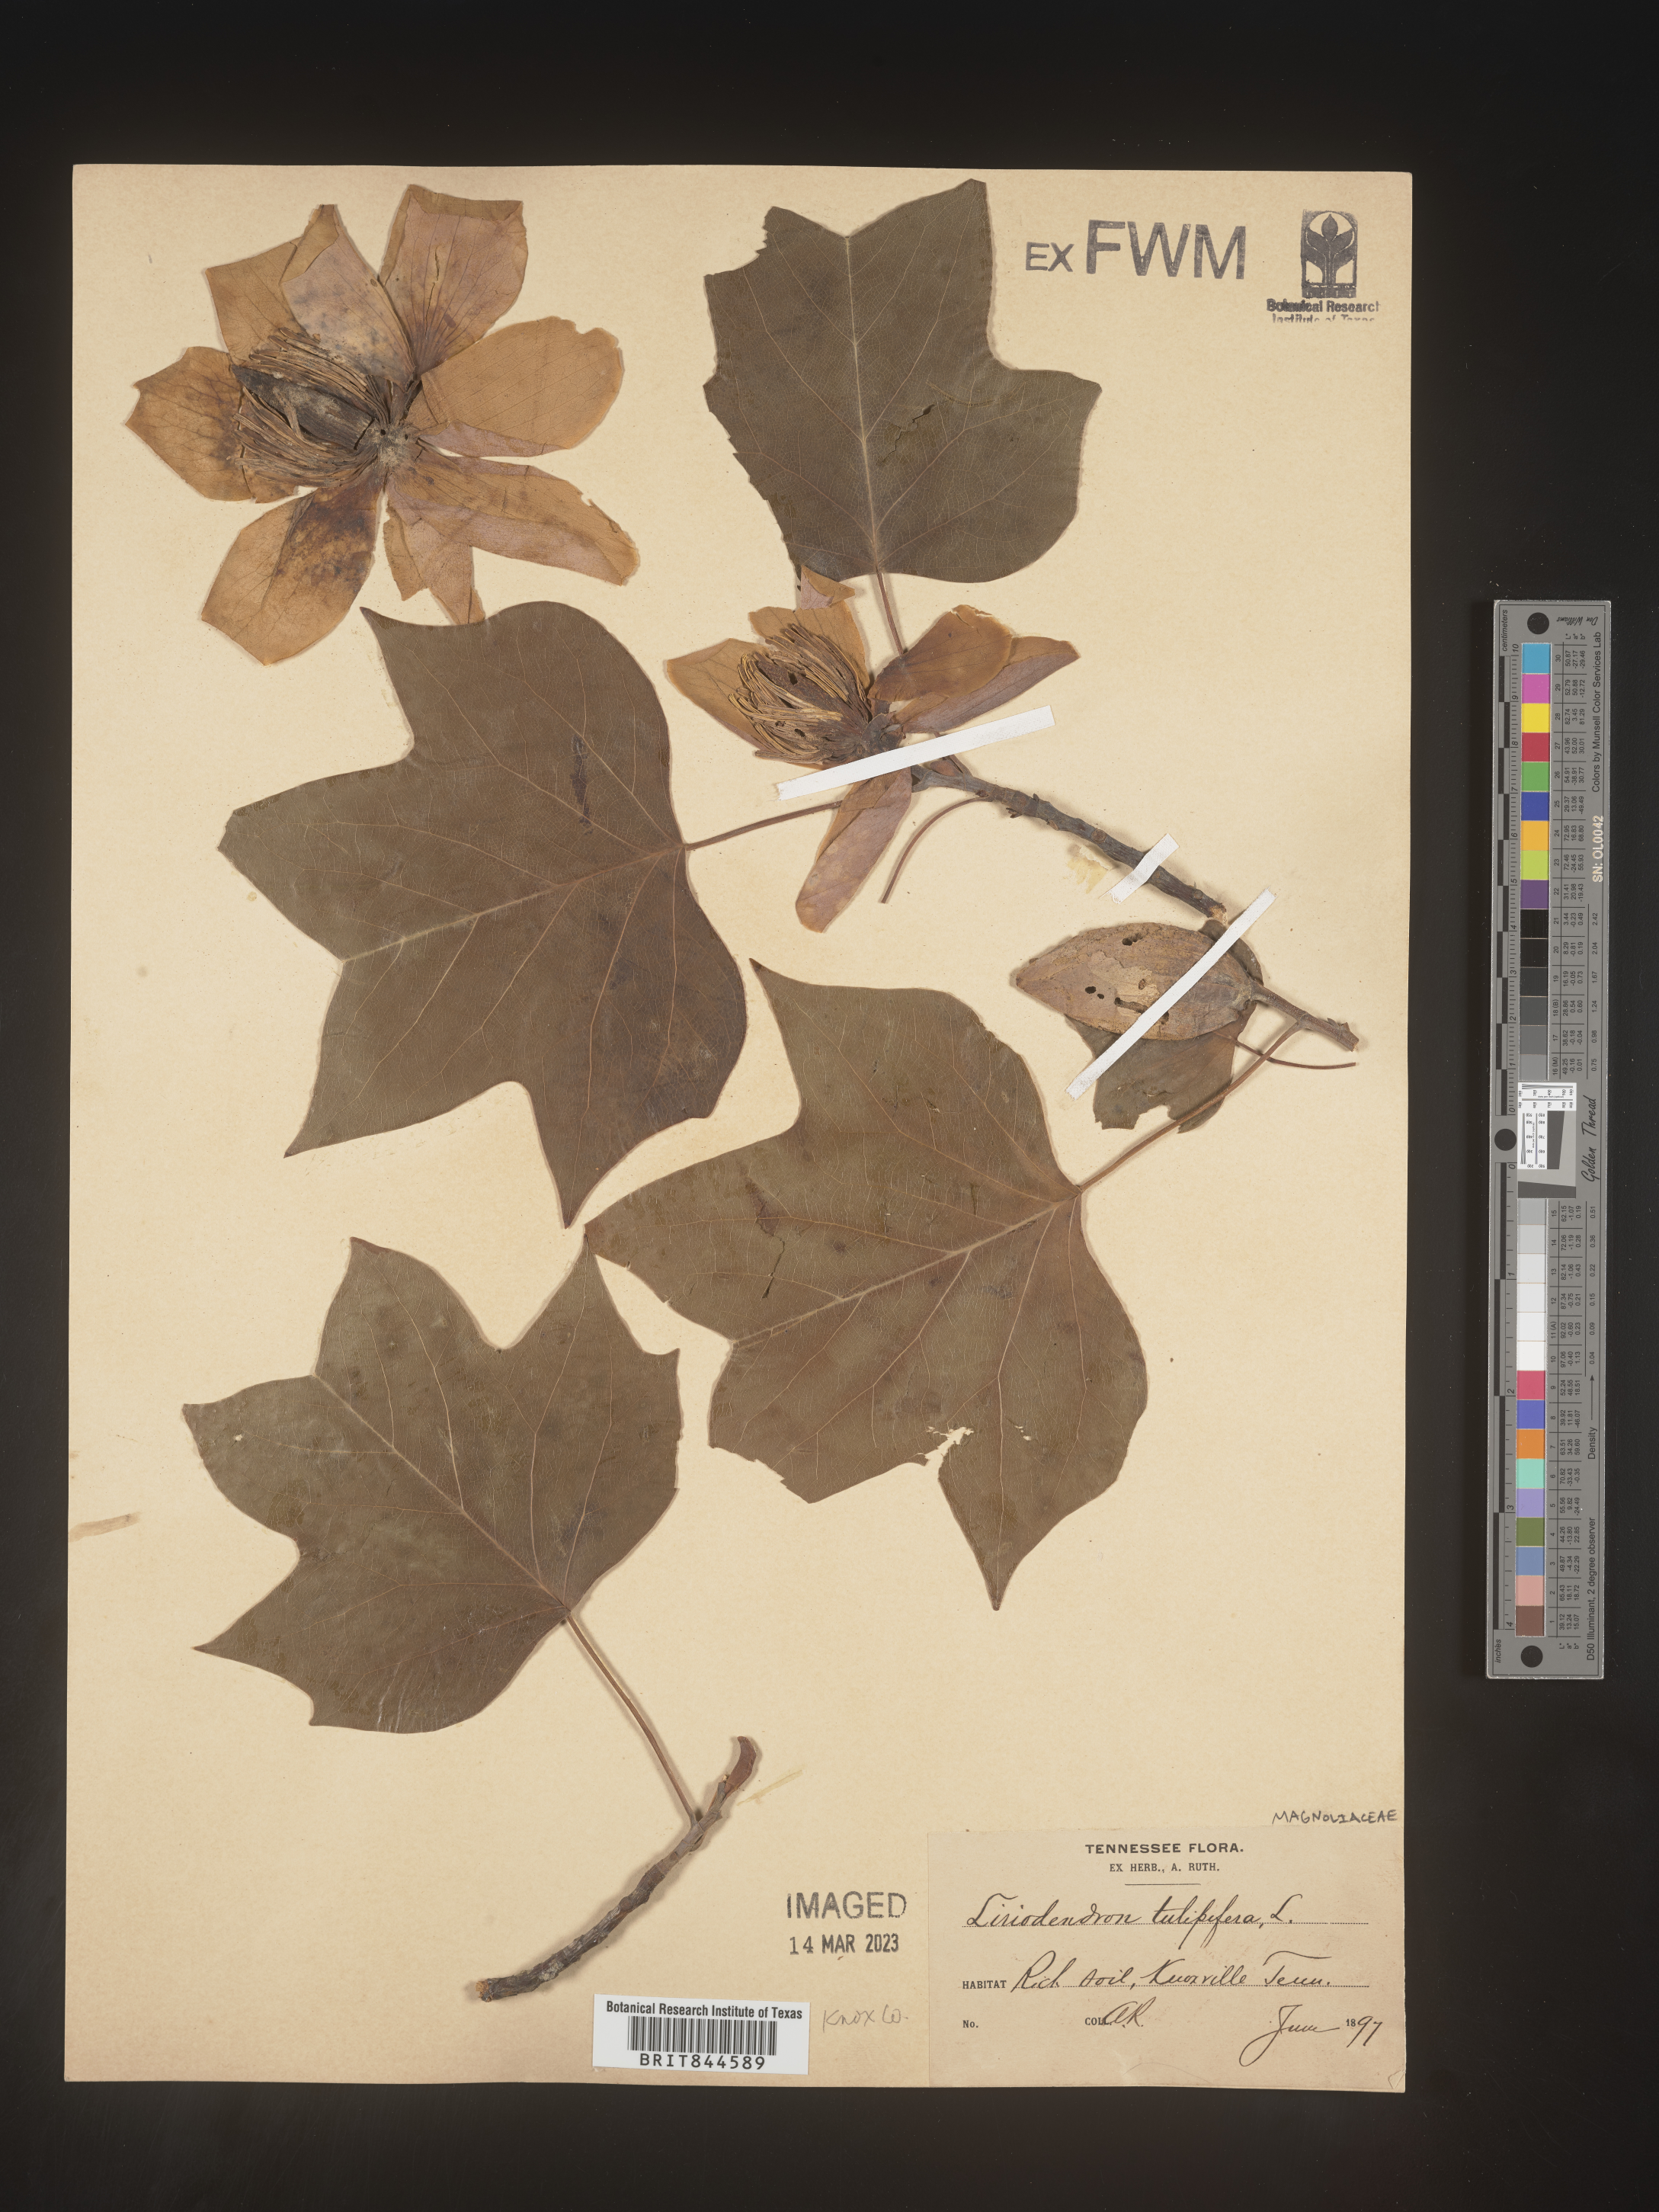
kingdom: Plantae
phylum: Tracheophyta
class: Magnoliopsida
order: Magnoliales
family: Magnoliaceae
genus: Liriodendron
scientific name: Liriodendron tulipifera
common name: Tulip tree
